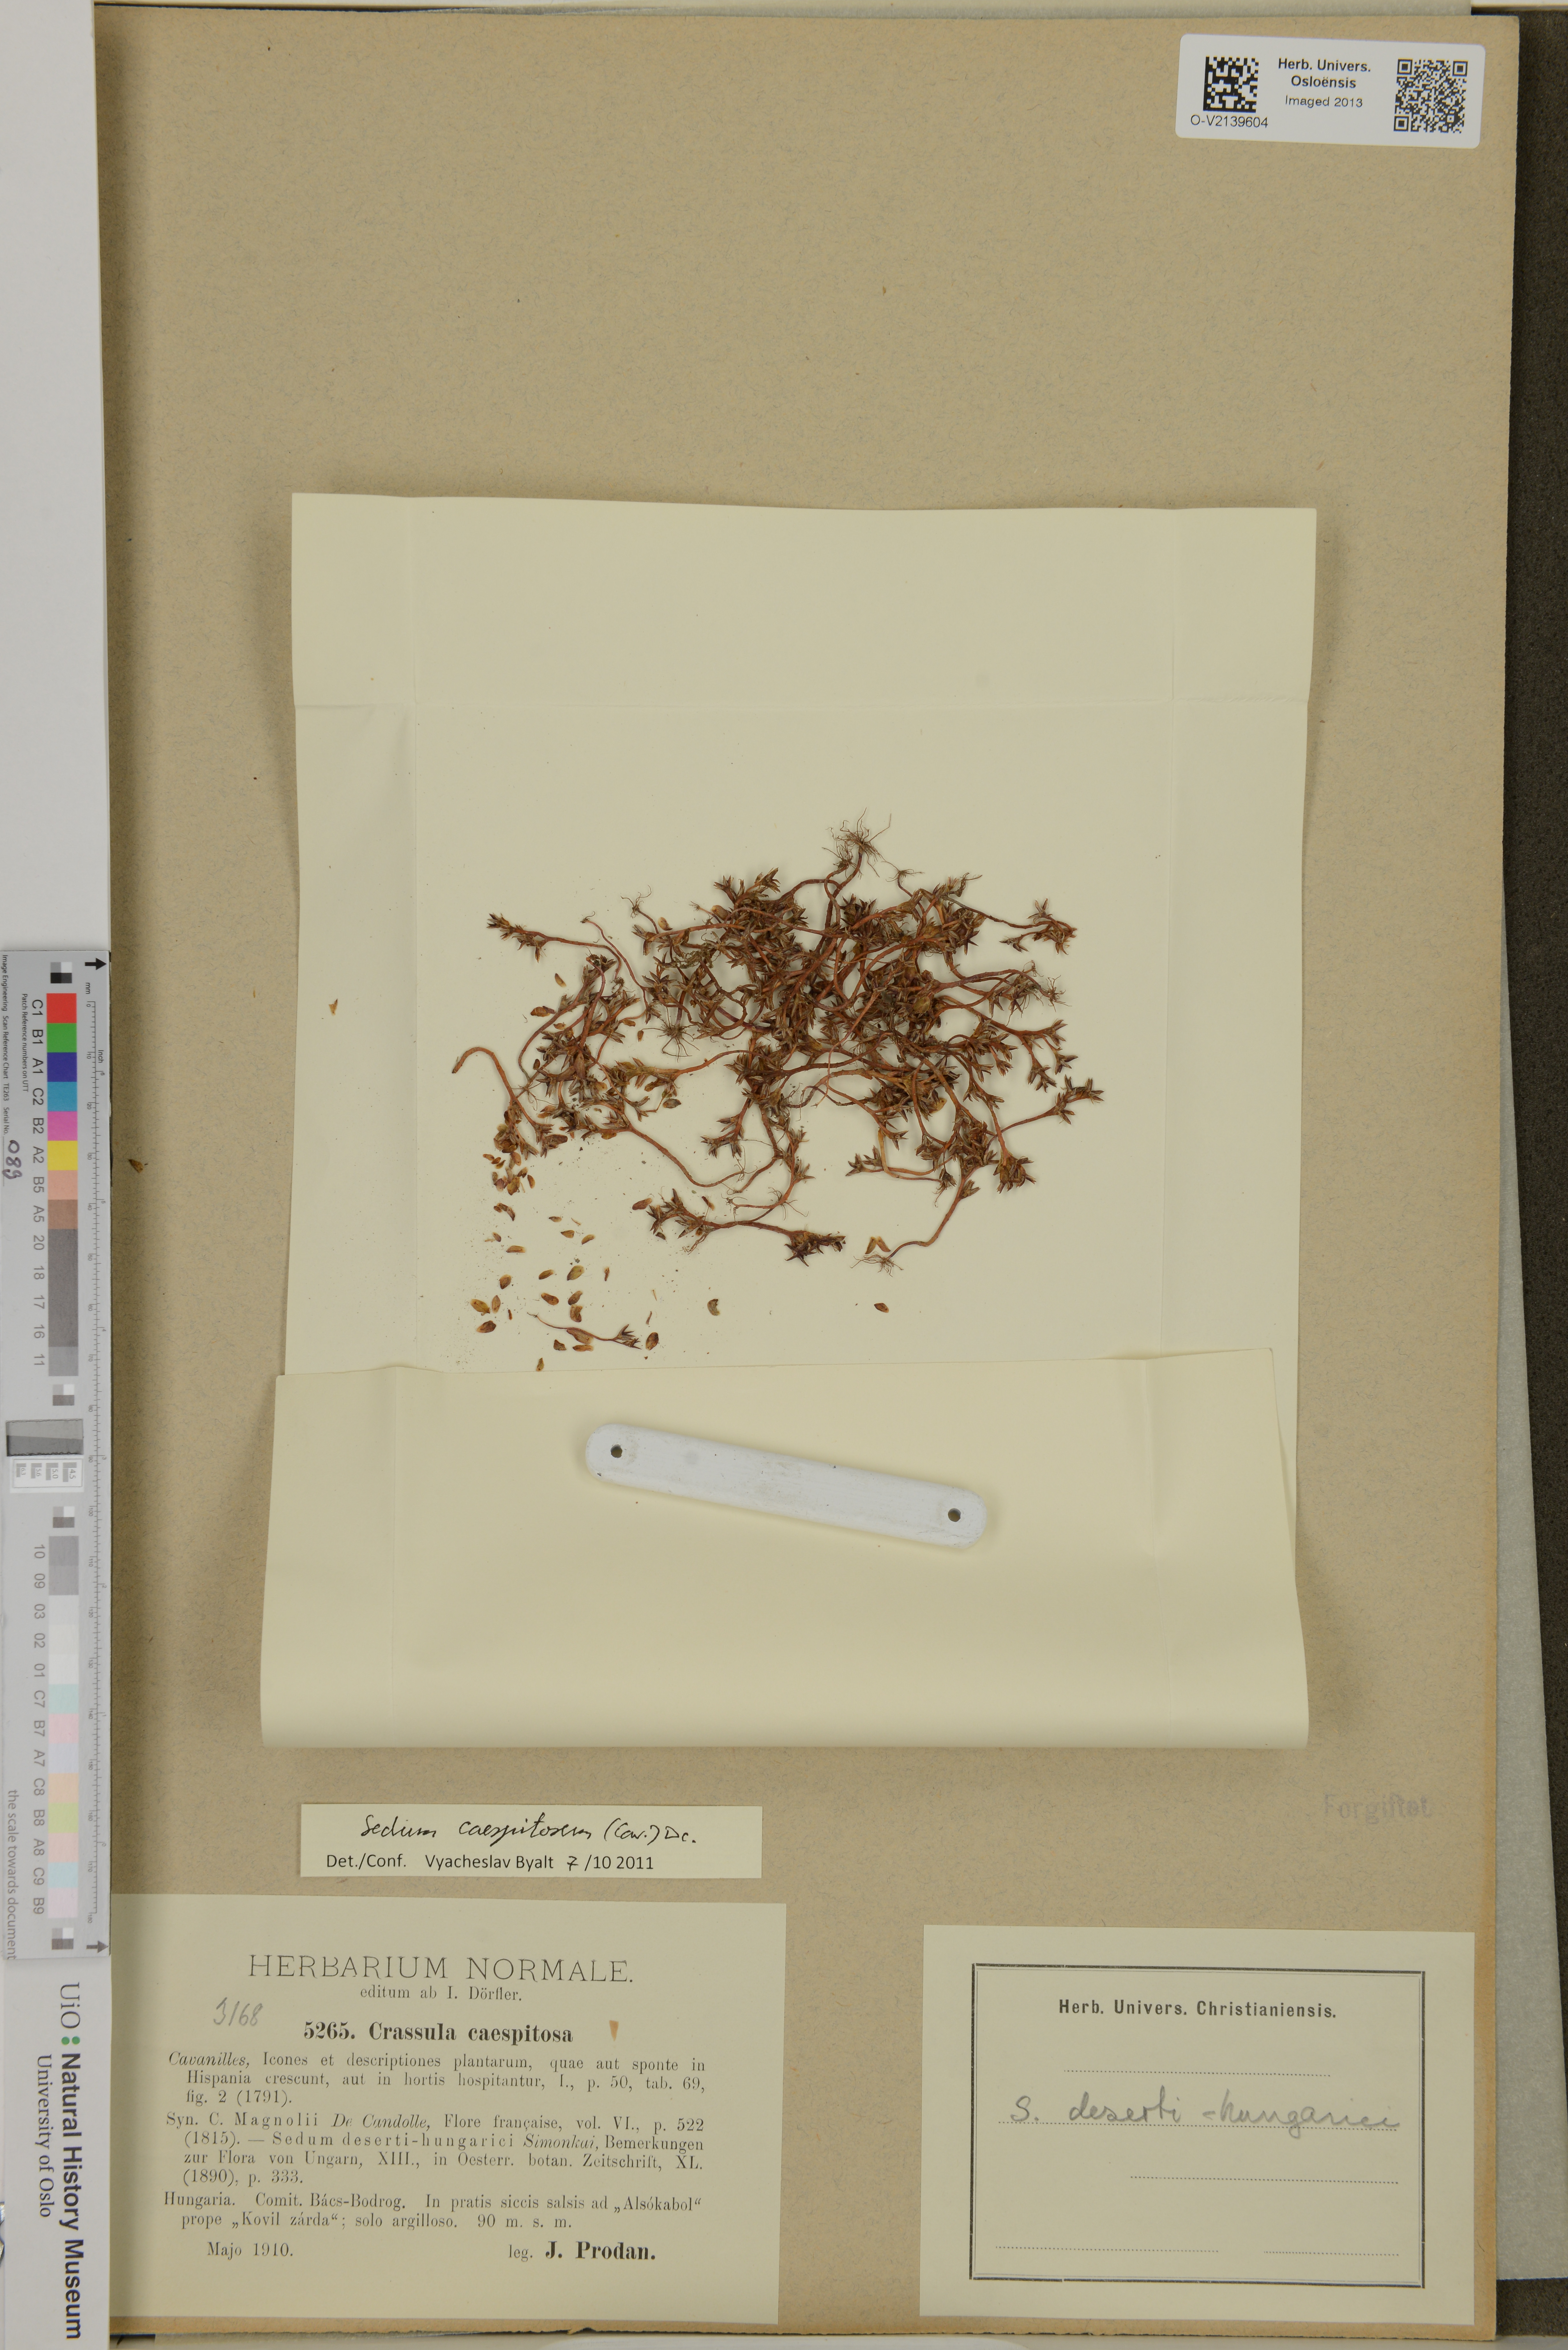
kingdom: Plantae
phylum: Tracheophyta
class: Magnoliopsida
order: Saxifragales
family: Crassulaceae
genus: Sedum
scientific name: Sedum cespitosum
